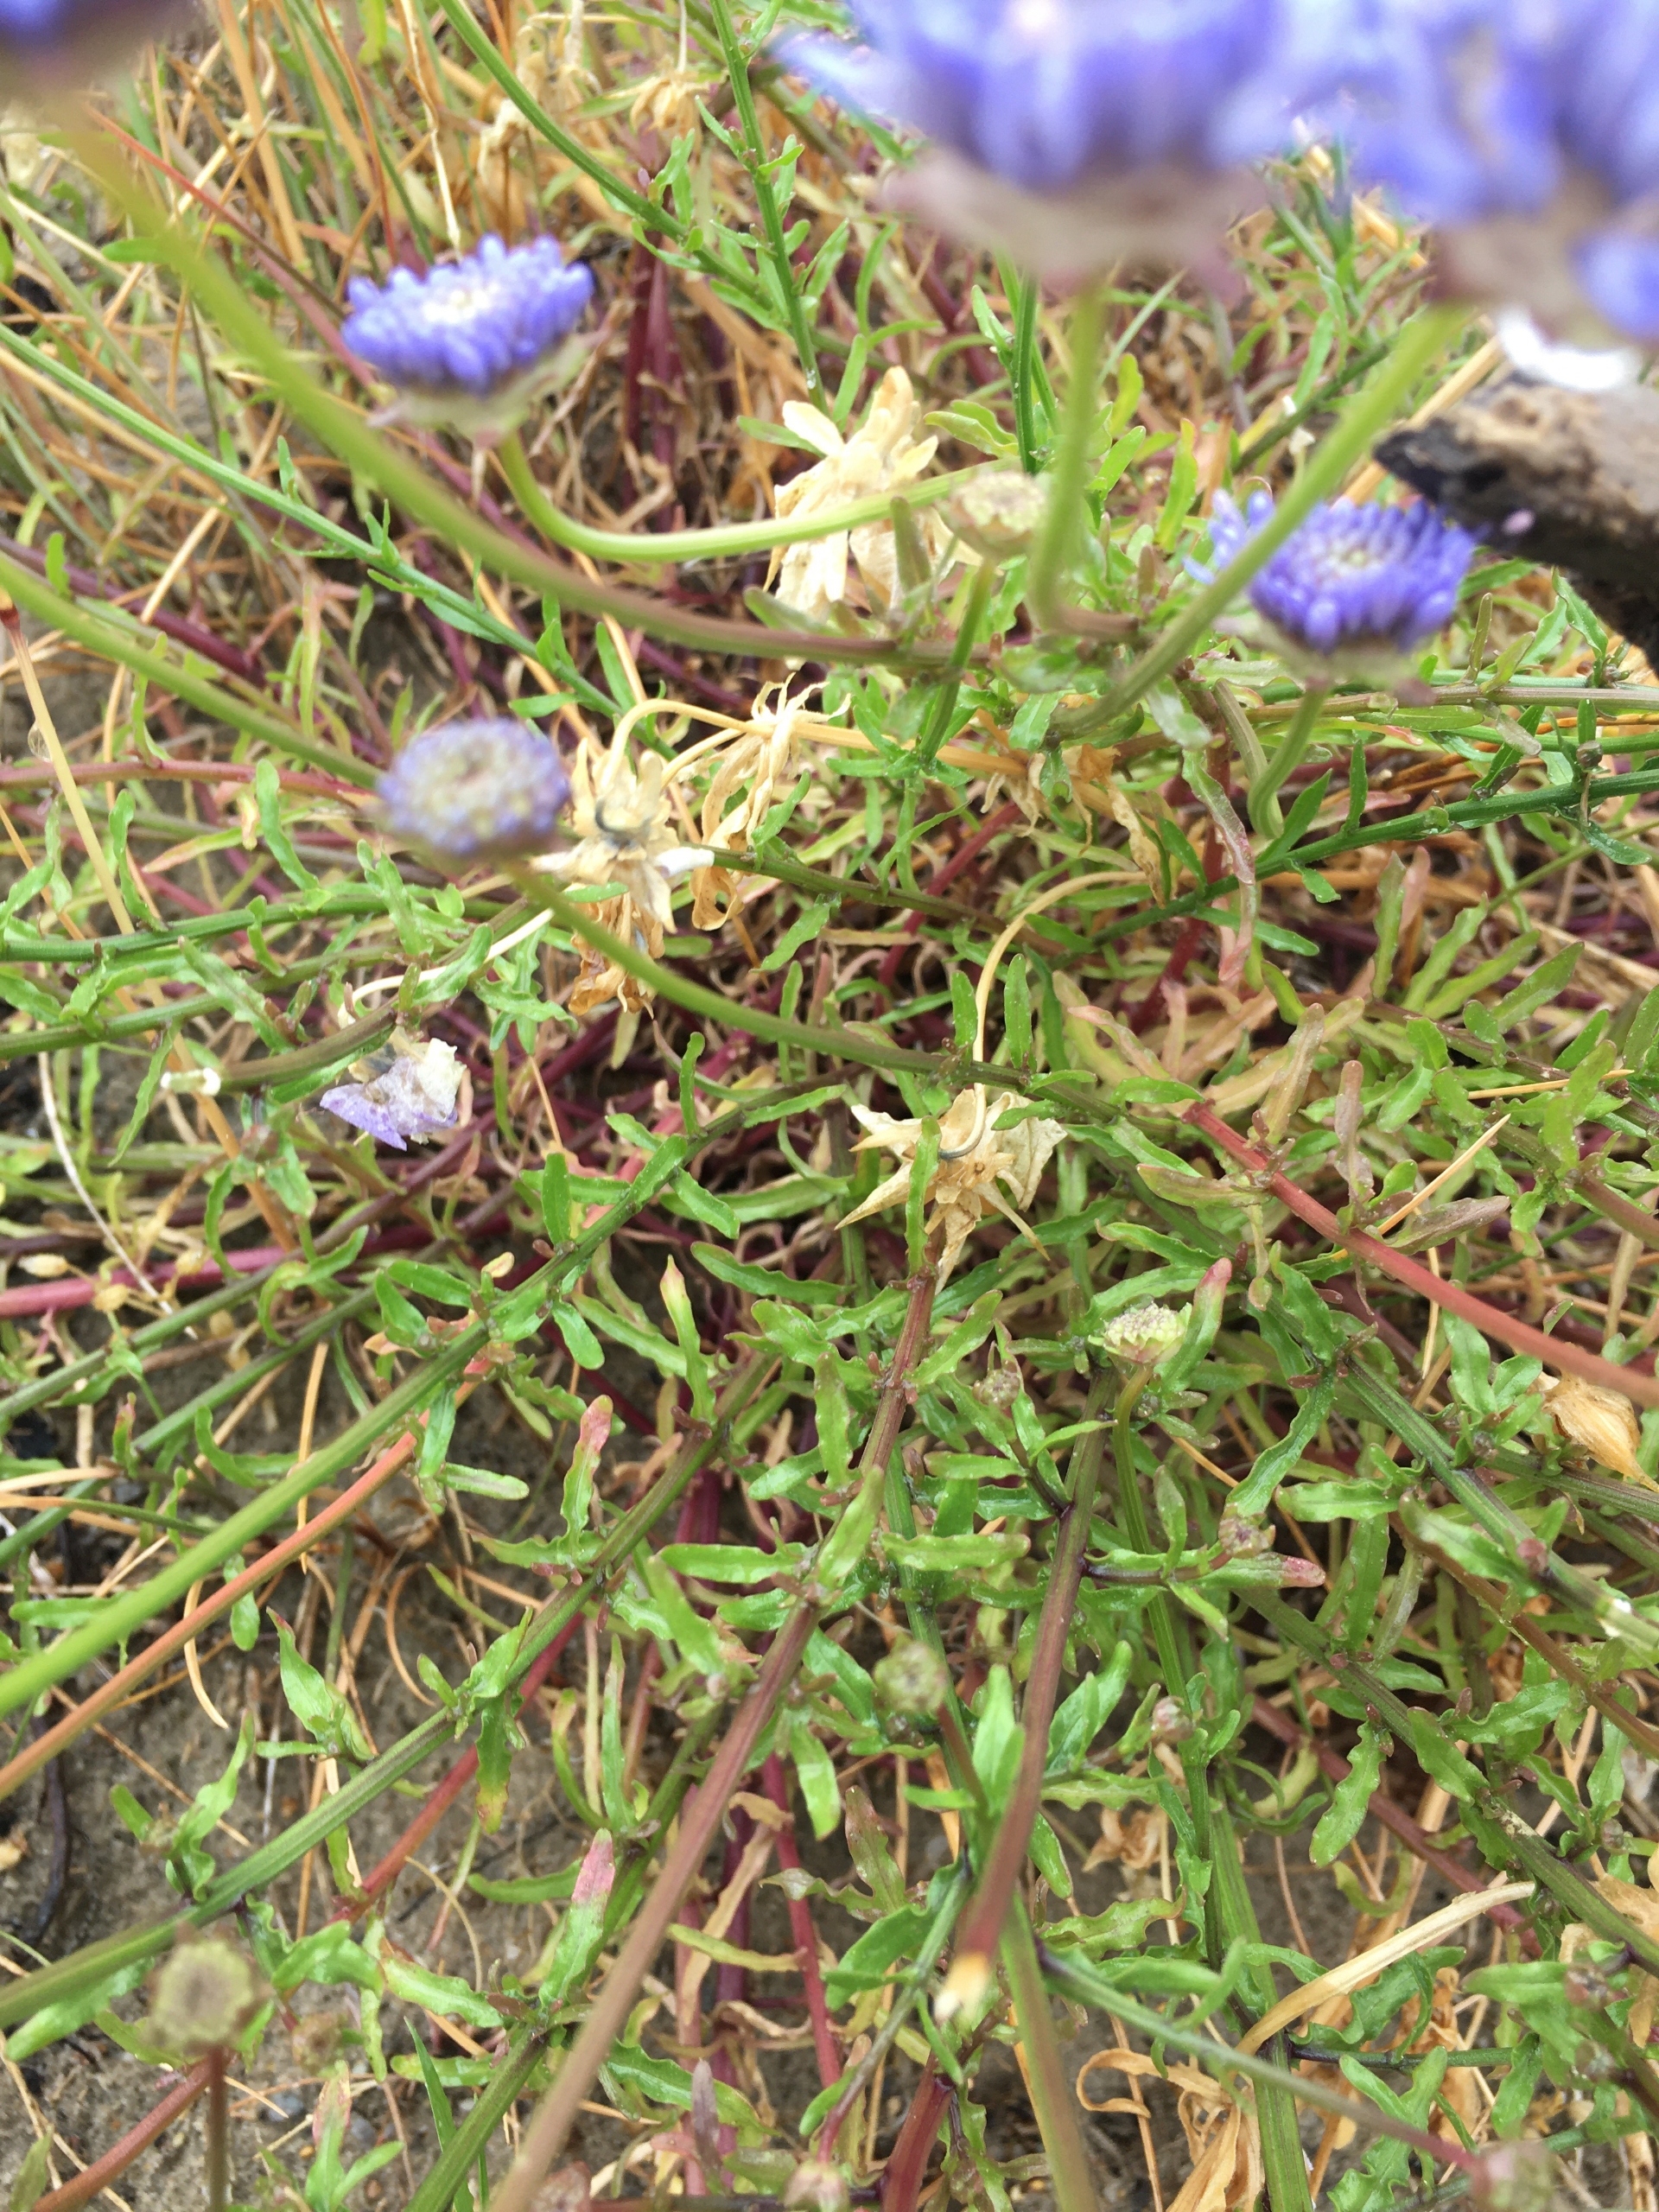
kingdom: Plantae
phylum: Tracheophyta
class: Magnoliopsida
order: Asterales
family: Campanulaceae
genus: Jasione
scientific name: Jasione montana
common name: Blåmunke
